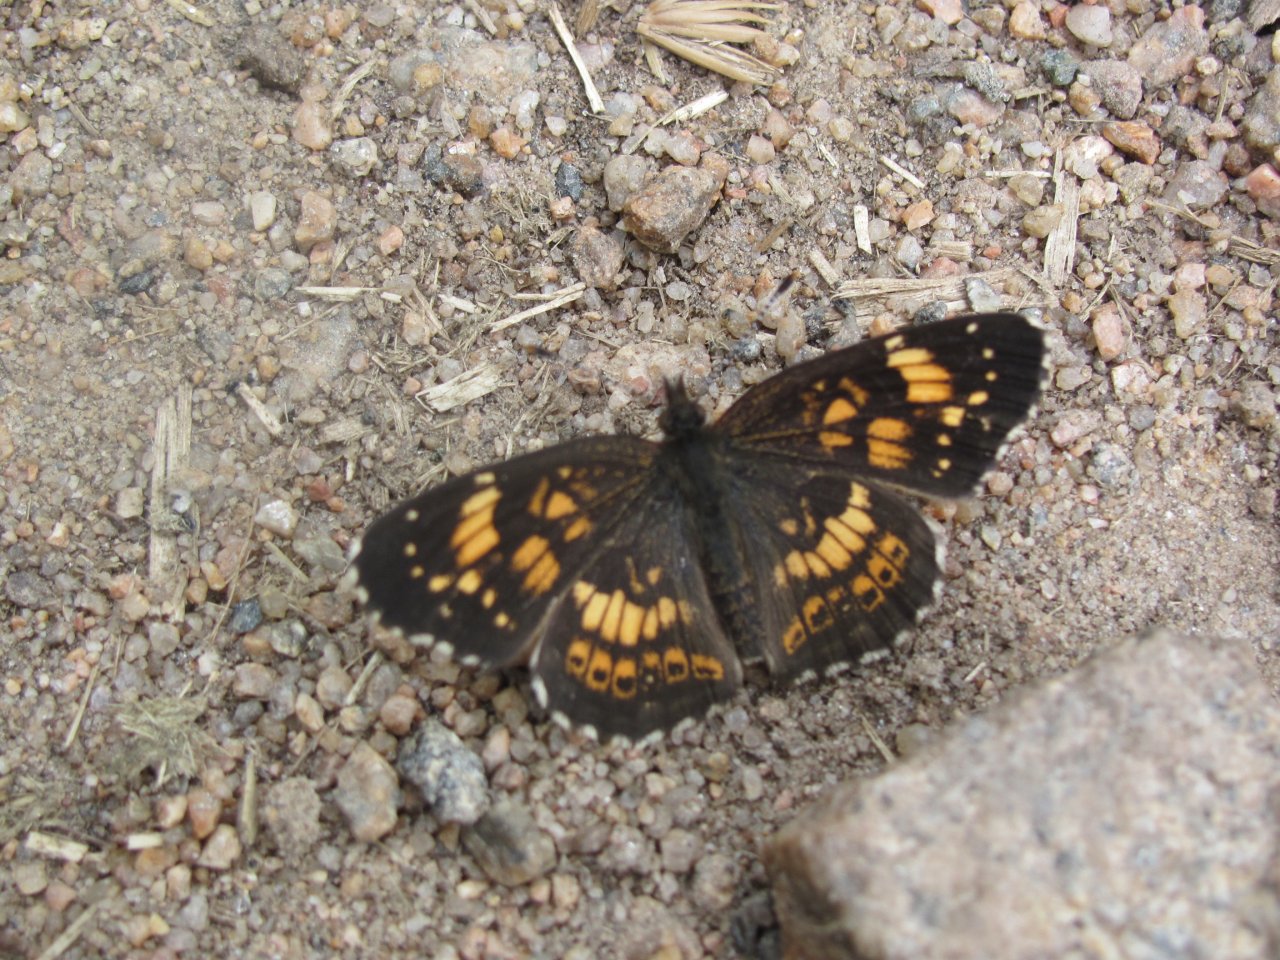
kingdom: Animalia
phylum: Arthropoda
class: Insecta
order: Lepidoptera
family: Nymphalidae
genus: Chlosyne
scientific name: Chlosyne nycteis
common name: Silvery Checkerspot
